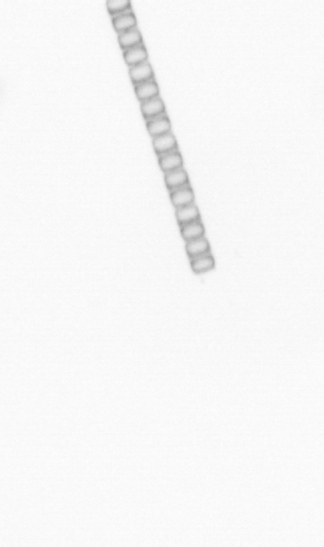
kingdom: Chromista
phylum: Ochrophyta
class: Bacillariophyceae
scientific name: Bacillariophyceae
